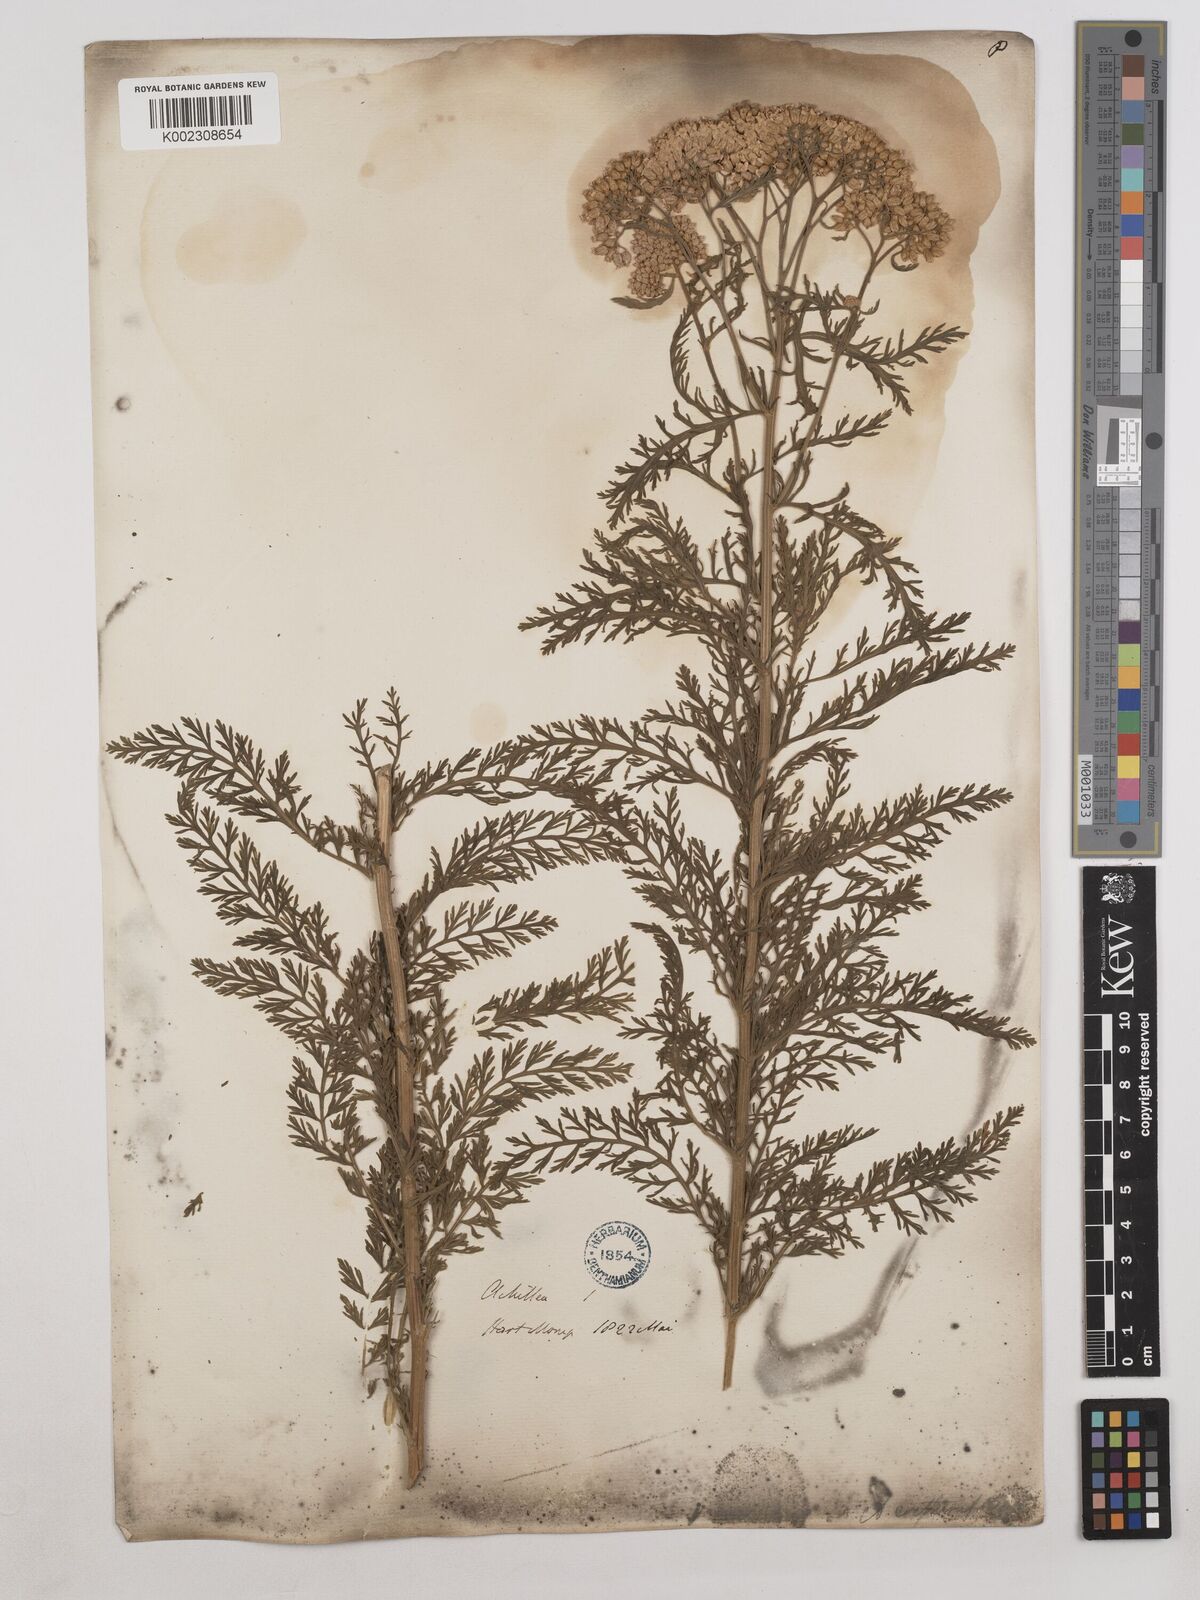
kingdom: Plantae
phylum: Tracheophyta
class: Magnoliopsida
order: Asterales
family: Asteraceae
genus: Achillea
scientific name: Achillea crithmifolia
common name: Yarrow
